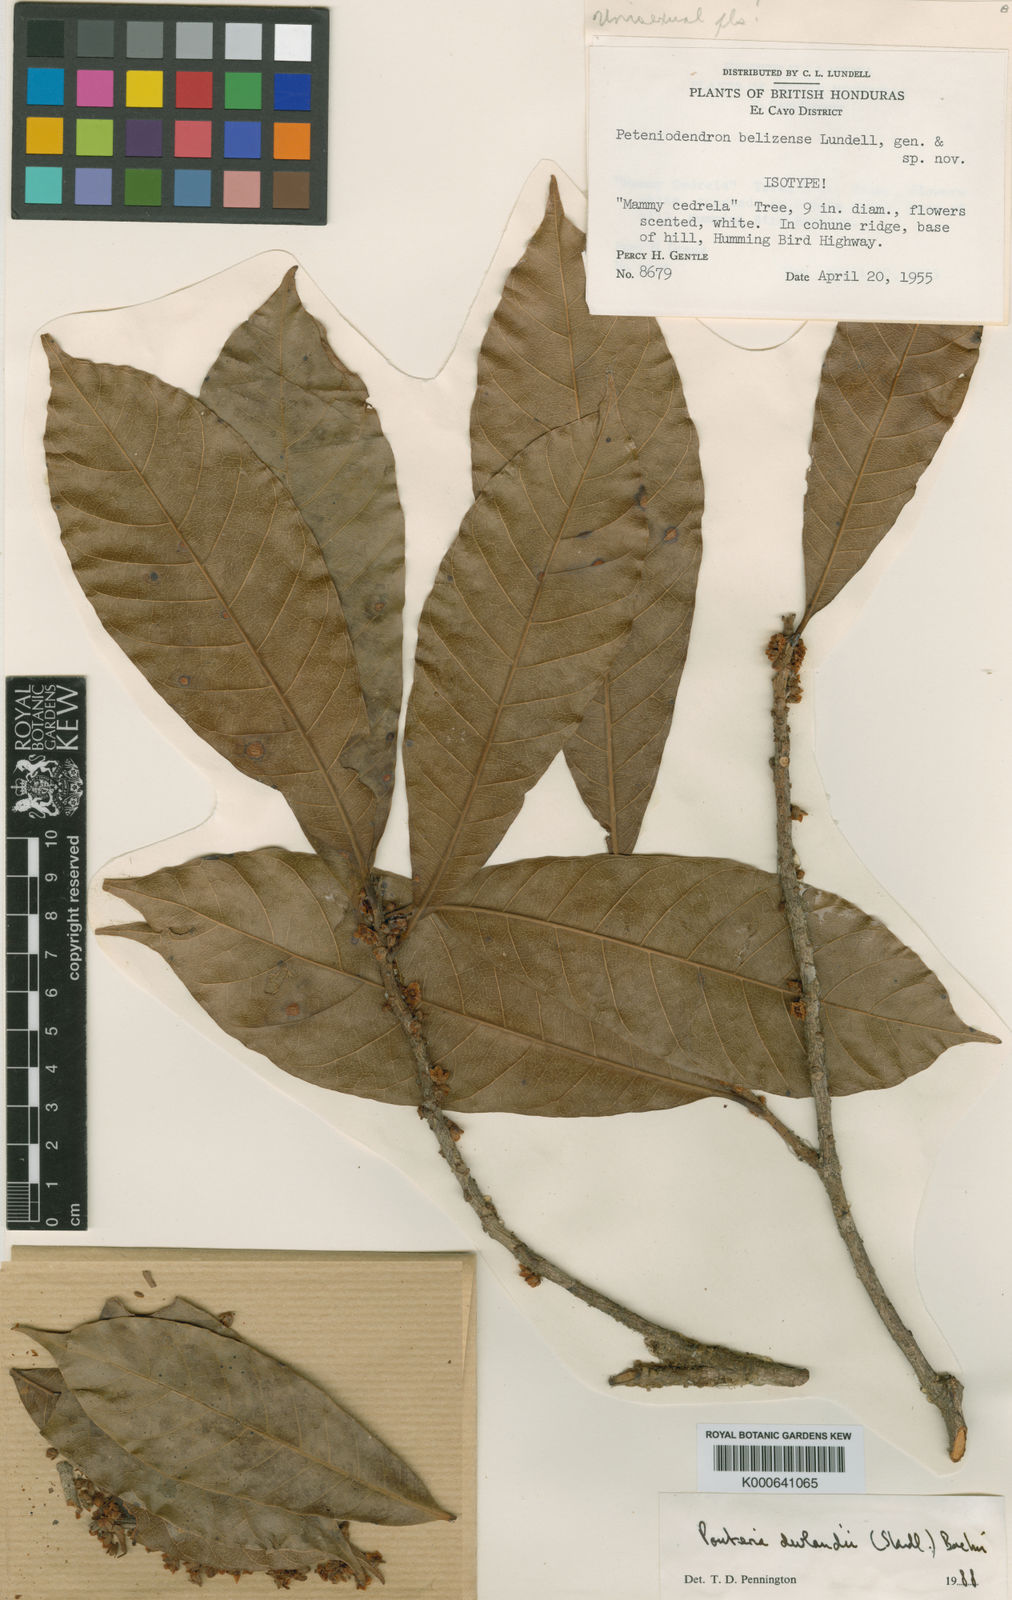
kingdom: Plantae
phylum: Tracheophyta
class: Magnoliopsida
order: Ericales
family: Sapotaceae
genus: Pouteria
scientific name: Pouteria durlandii
